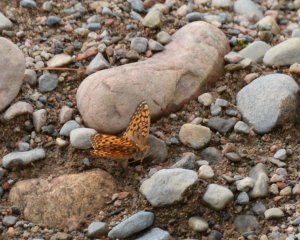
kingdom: Animalia
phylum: Arthropoda
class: Insecta
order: Lepidoptera
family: Nymphalidae
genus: Speyeria
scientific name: Speyeria aphrodite
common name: Aphrodite Fritillary
